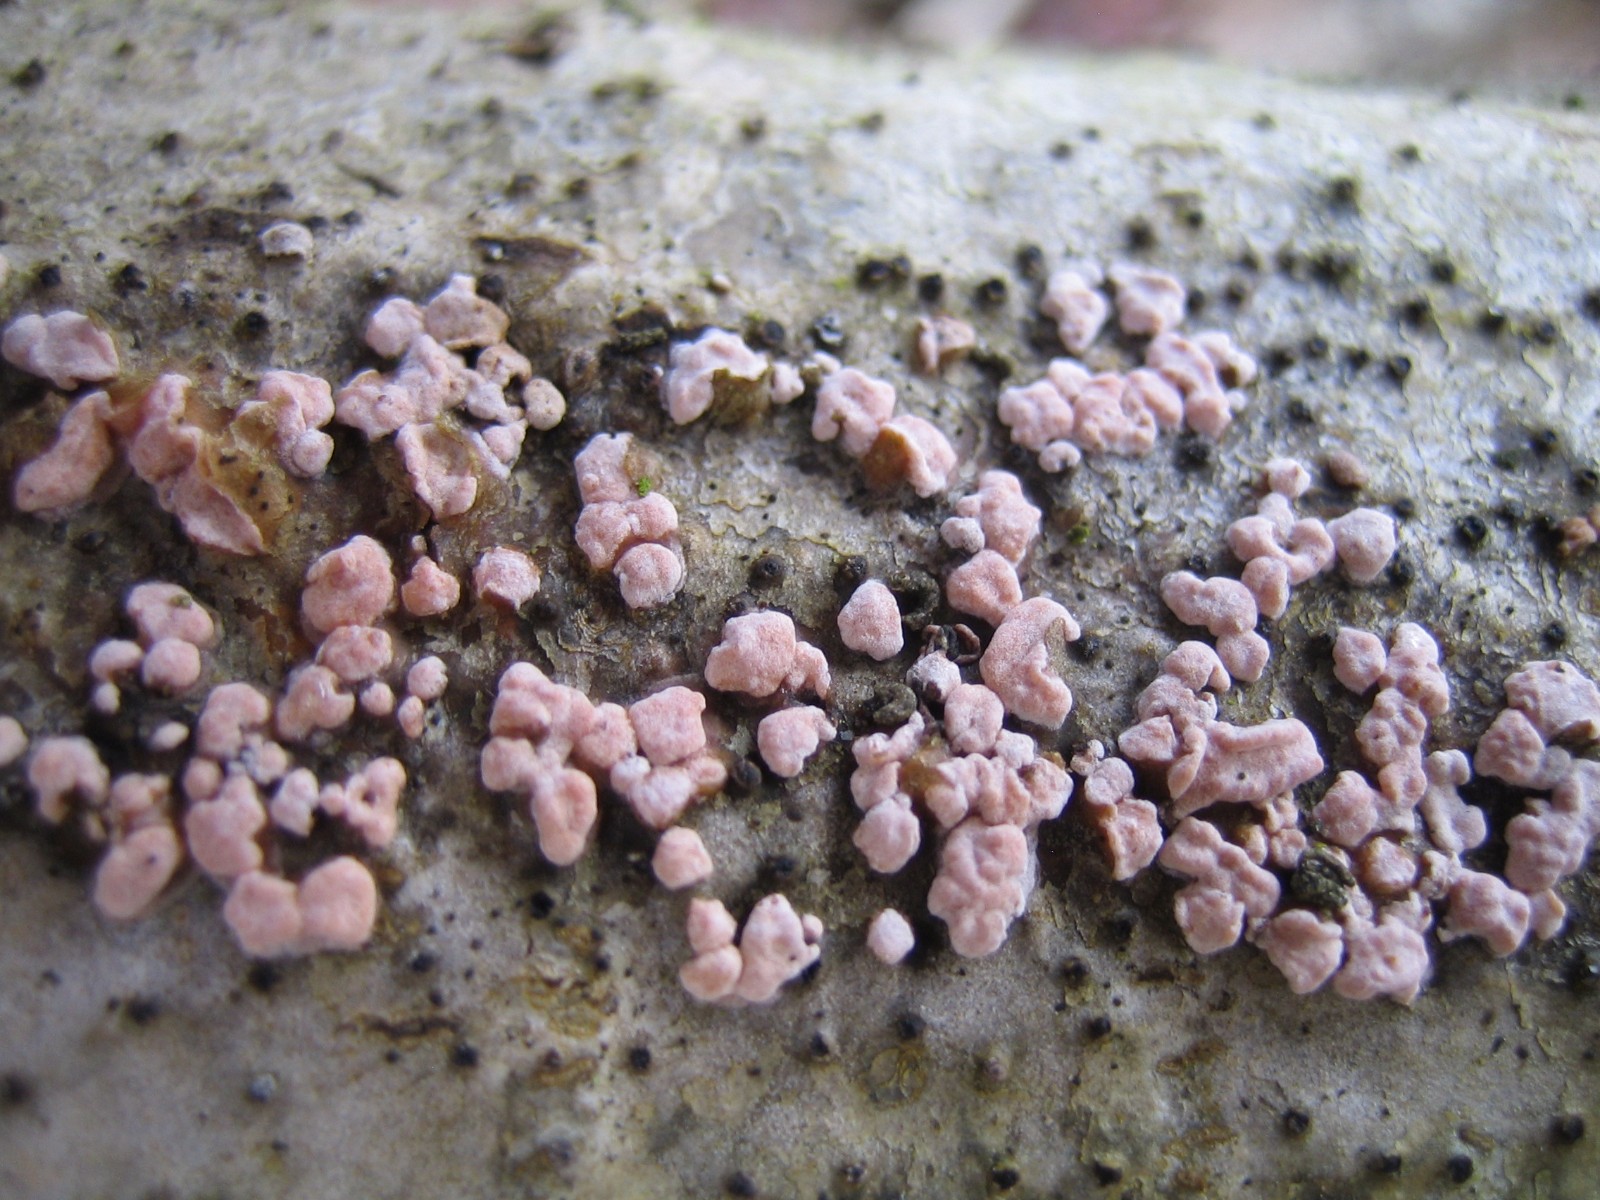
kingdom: Fungi
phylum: Basidiomycota
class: Agaricomycetes
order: Russulales
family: Peniophoraceae
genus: Peniophora
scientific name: Peniophora polygonia
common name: polygon-voksskind
